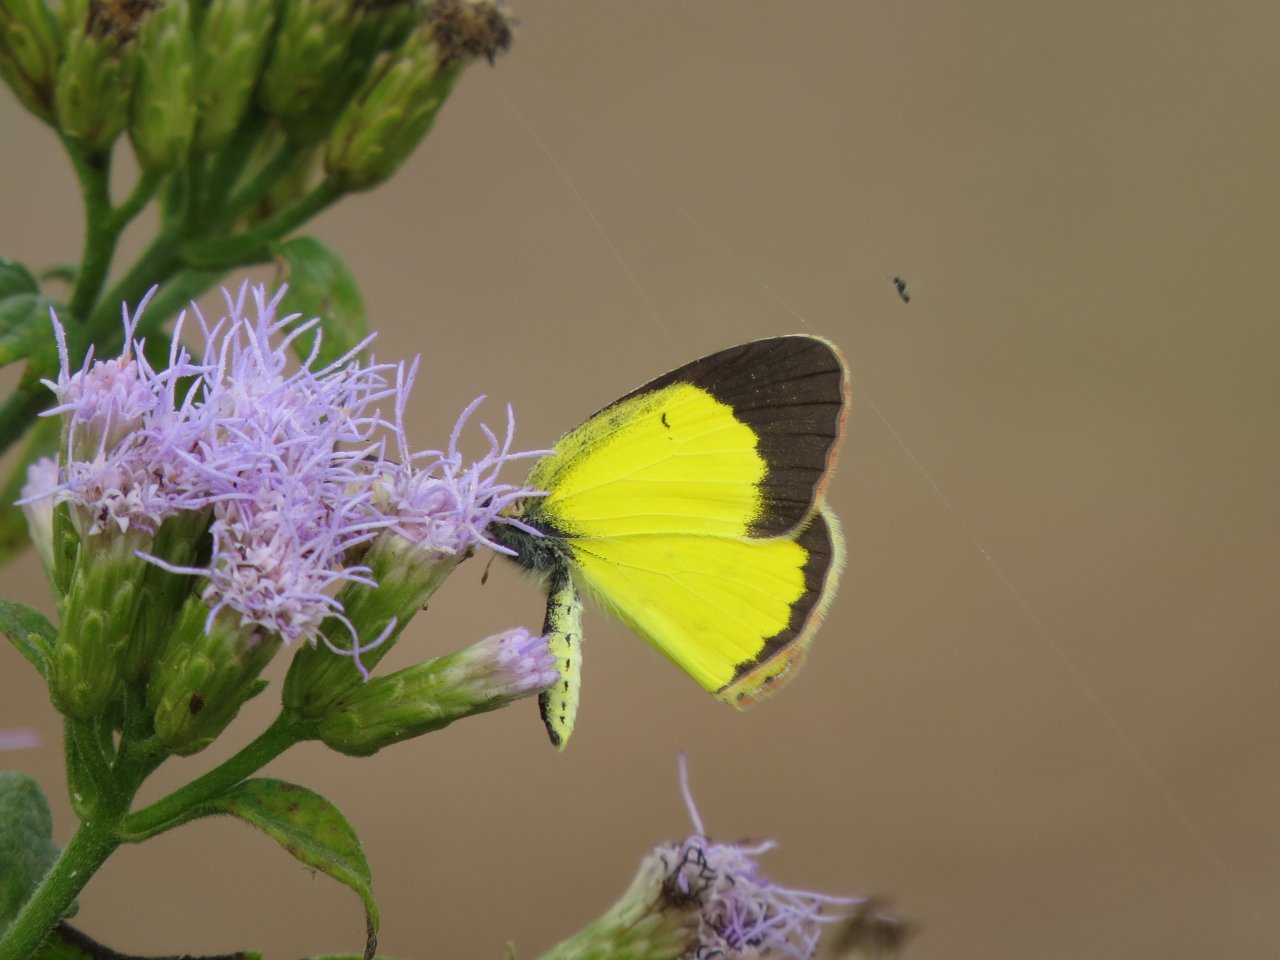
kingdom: Animalia
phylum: Arthropoda
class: Insecta
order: Lepidoptera
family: Pieridae
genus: Pyrisitia
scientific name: Pyrisitia lisa
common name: Little Yellow
